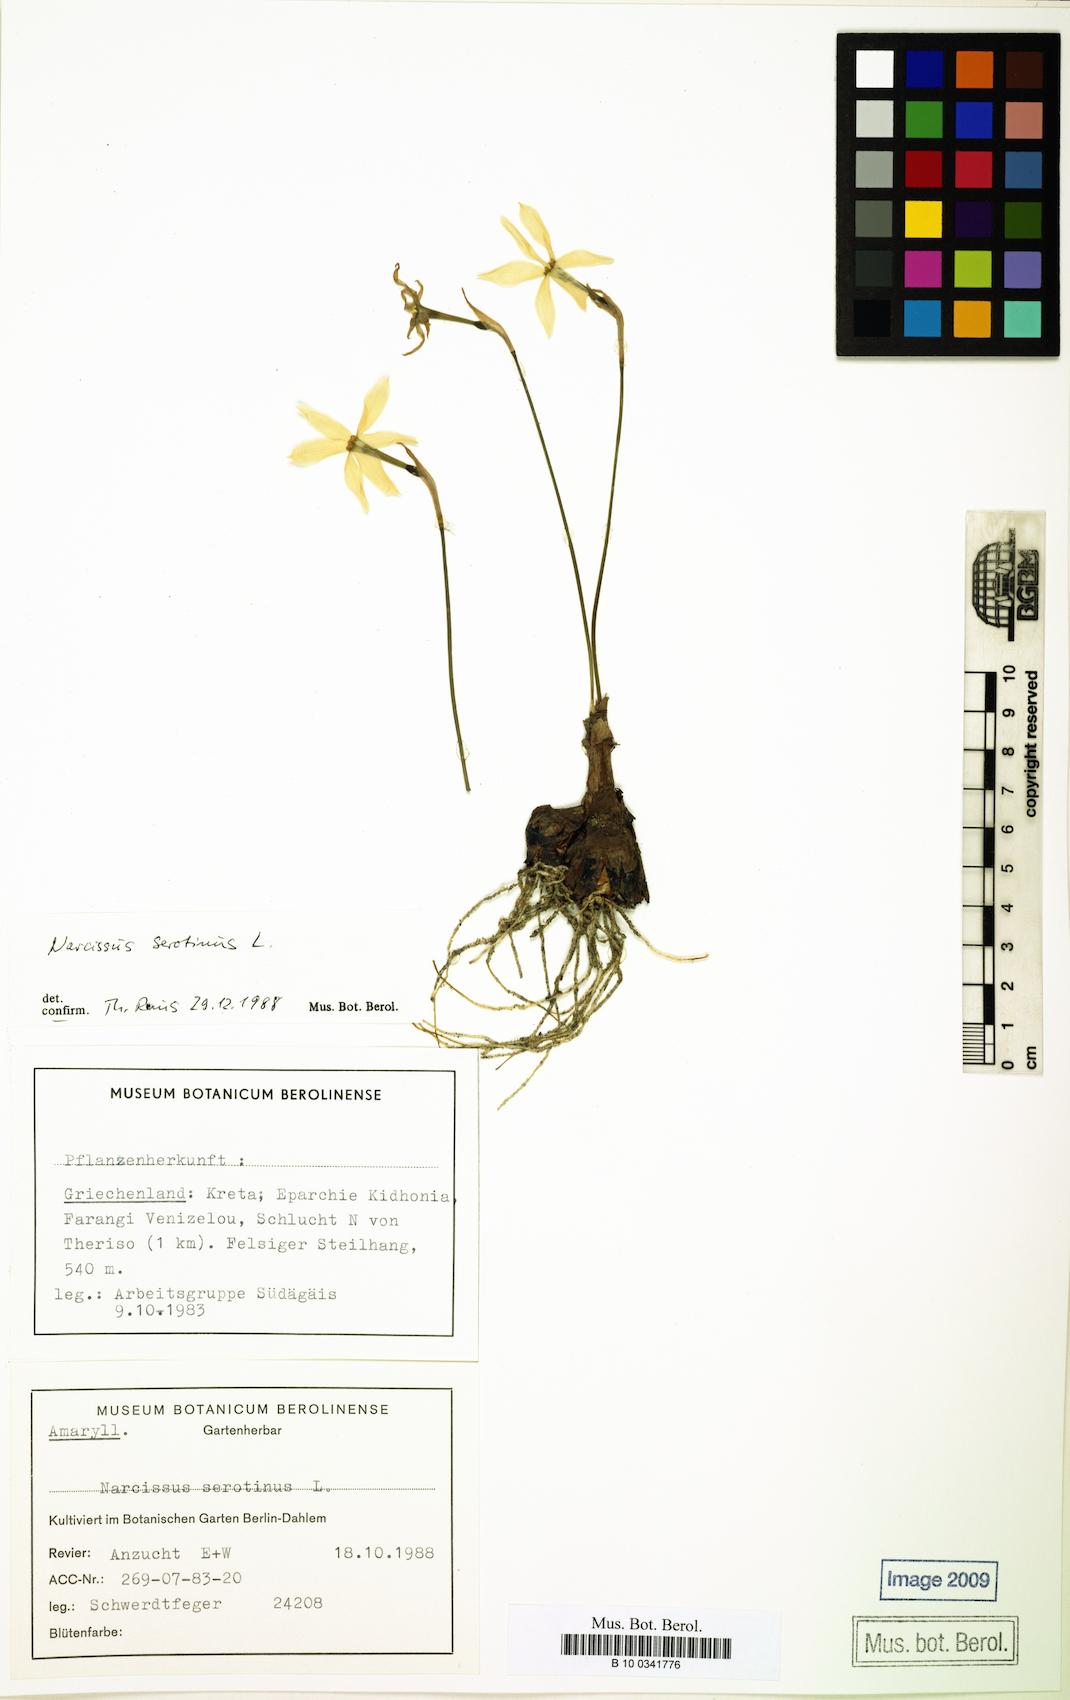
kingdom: Plantae
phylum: Tracheophyta
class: Liliopsida
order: Asparagales
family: Amaryllidaceae
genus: Narcissus
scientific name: Narcissus serotinus
